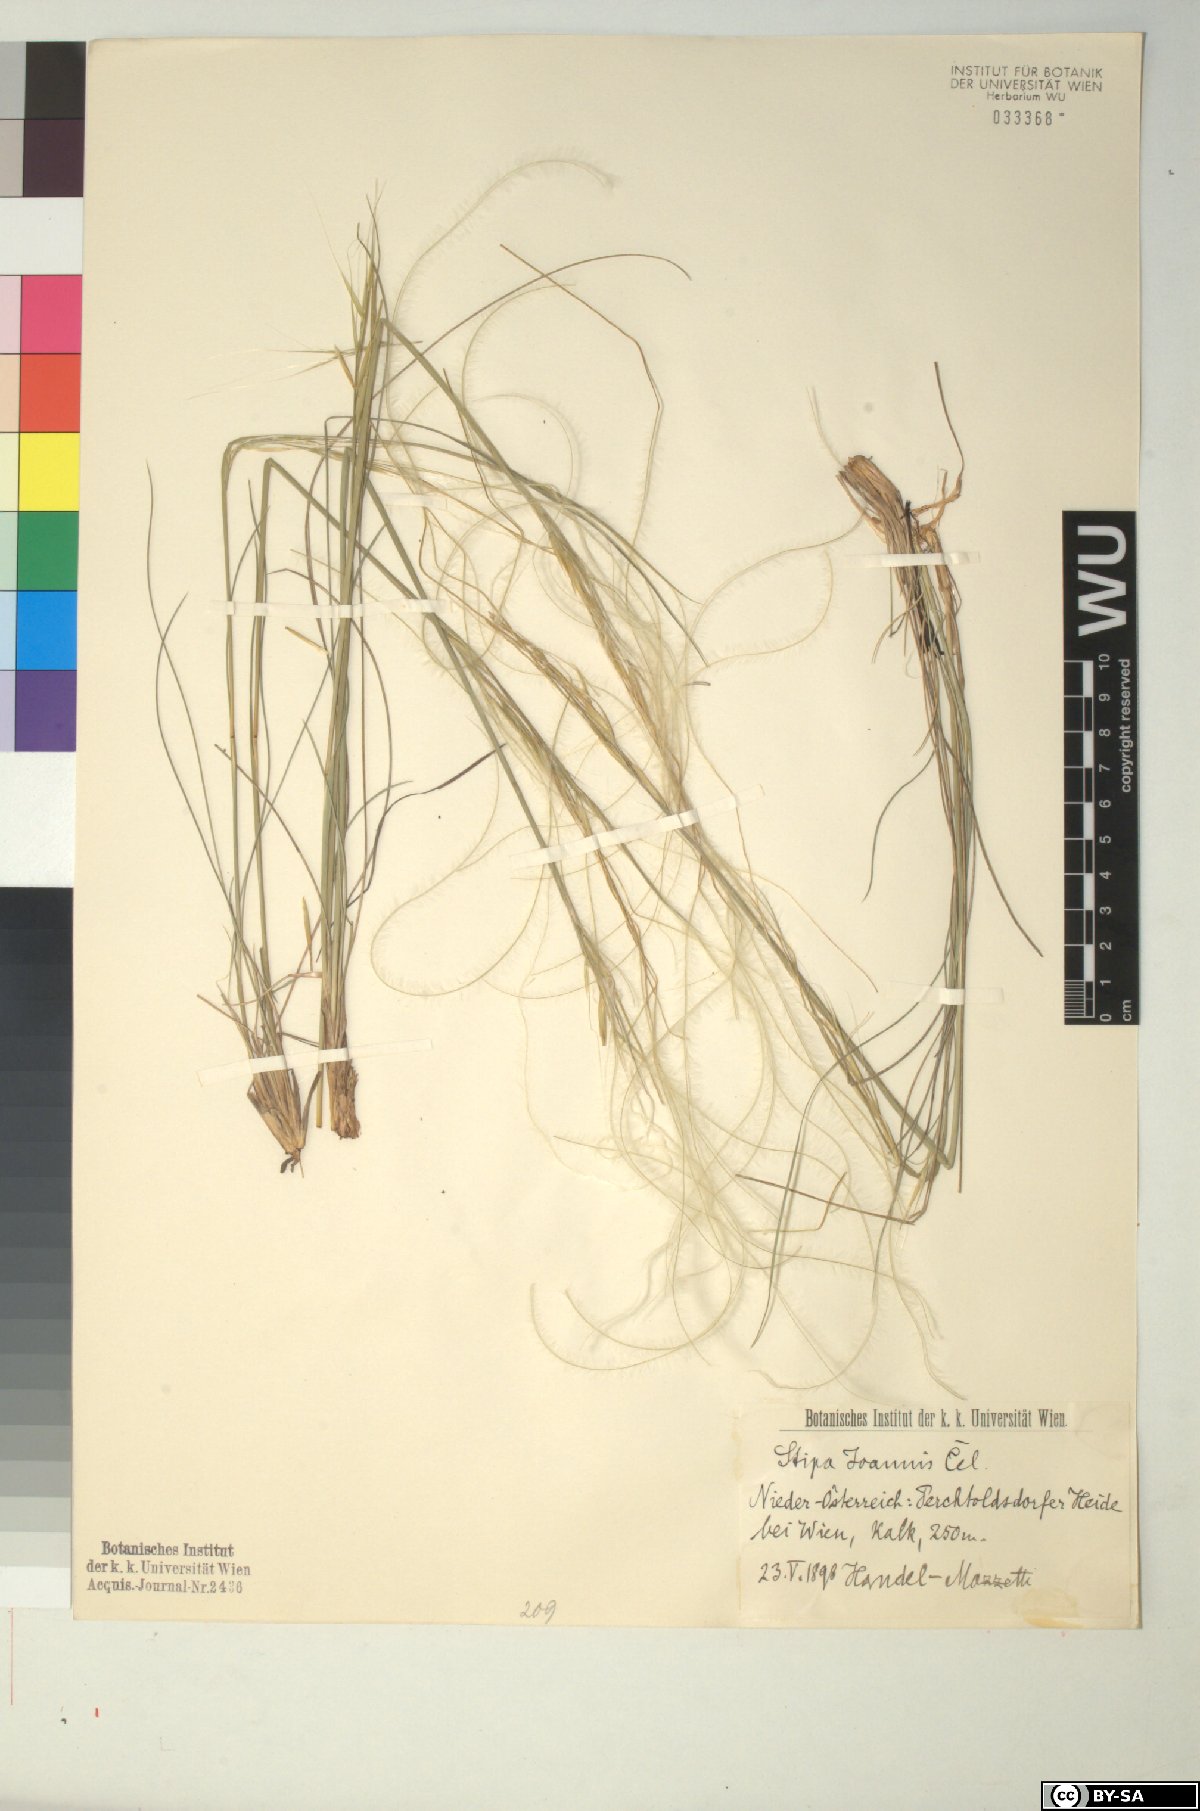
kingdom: Plantae
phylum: Tracheophyta
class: Liliopsida
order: Poales
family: Poaceae
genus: Stipa
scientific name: Stipa pennata
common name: European feather grass
